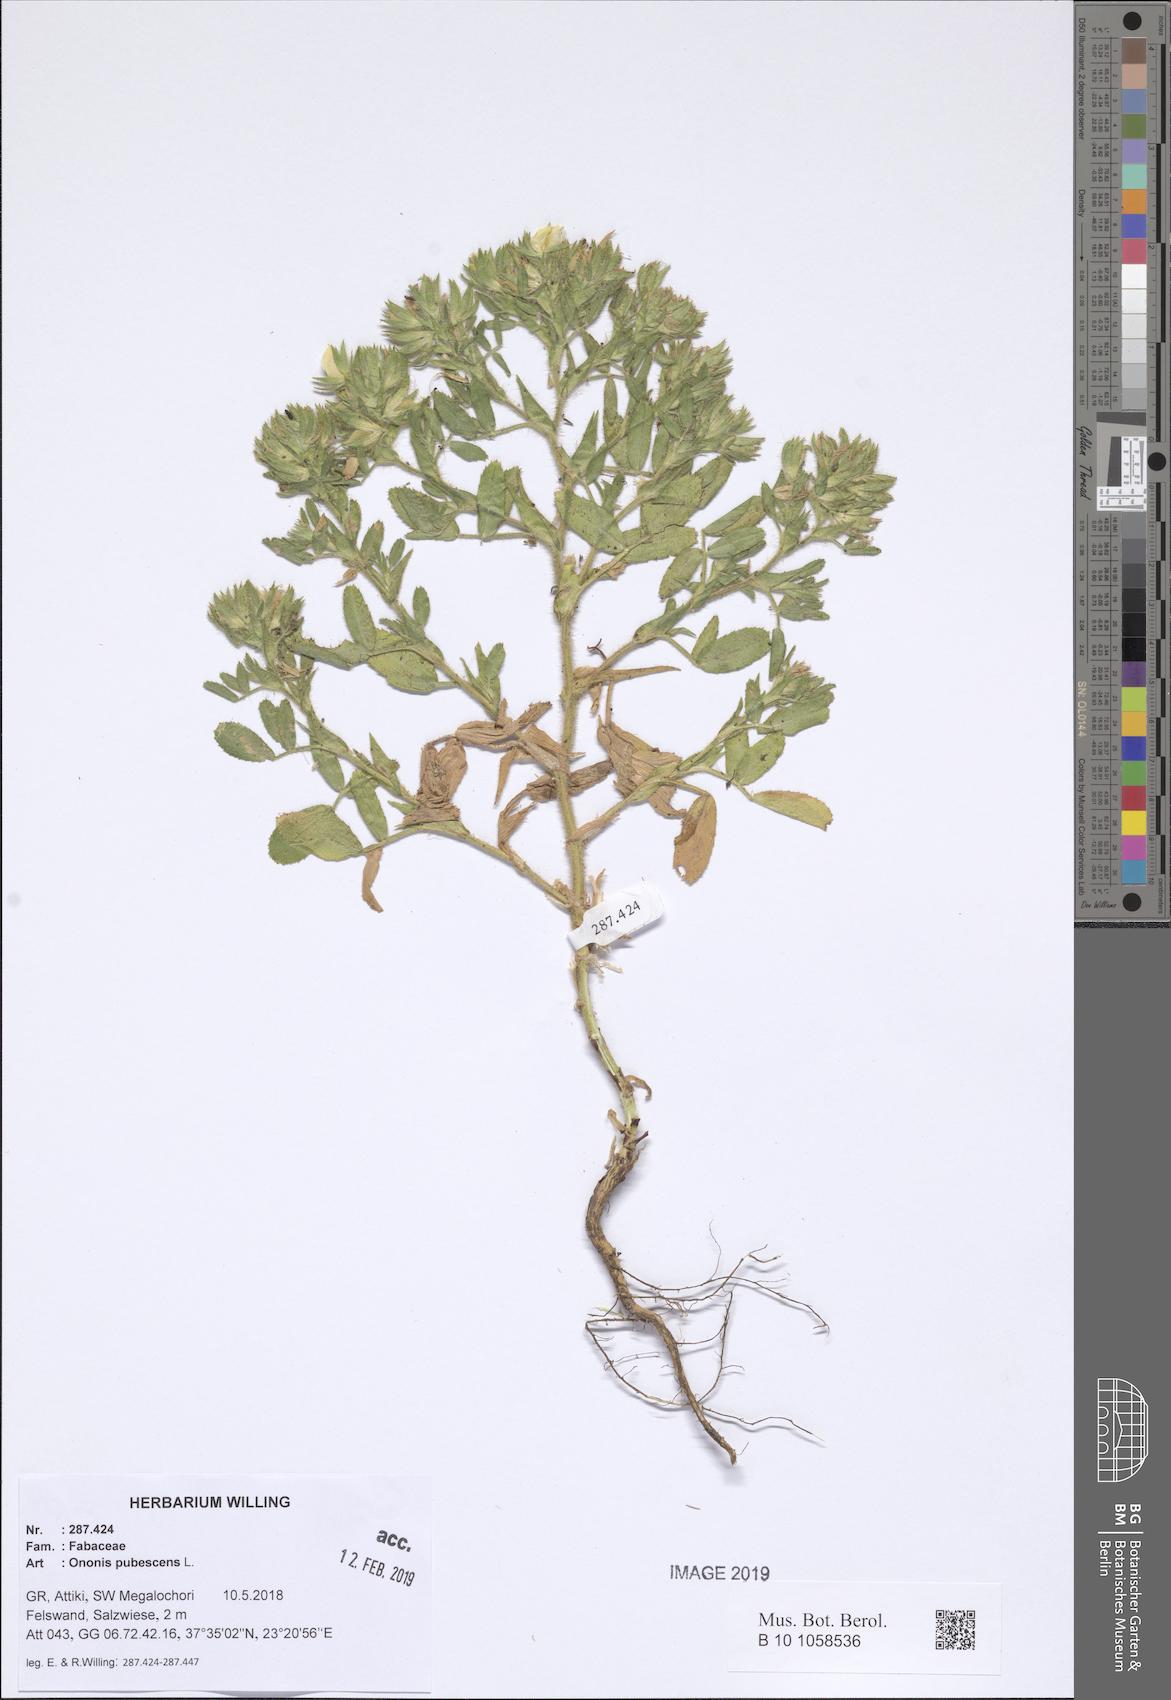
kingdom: Plantae
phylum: Tracheophyta
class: Magnoliopsida
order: Fabales
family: Fabaceae
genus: Ononis
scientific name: Ononis pubescens
